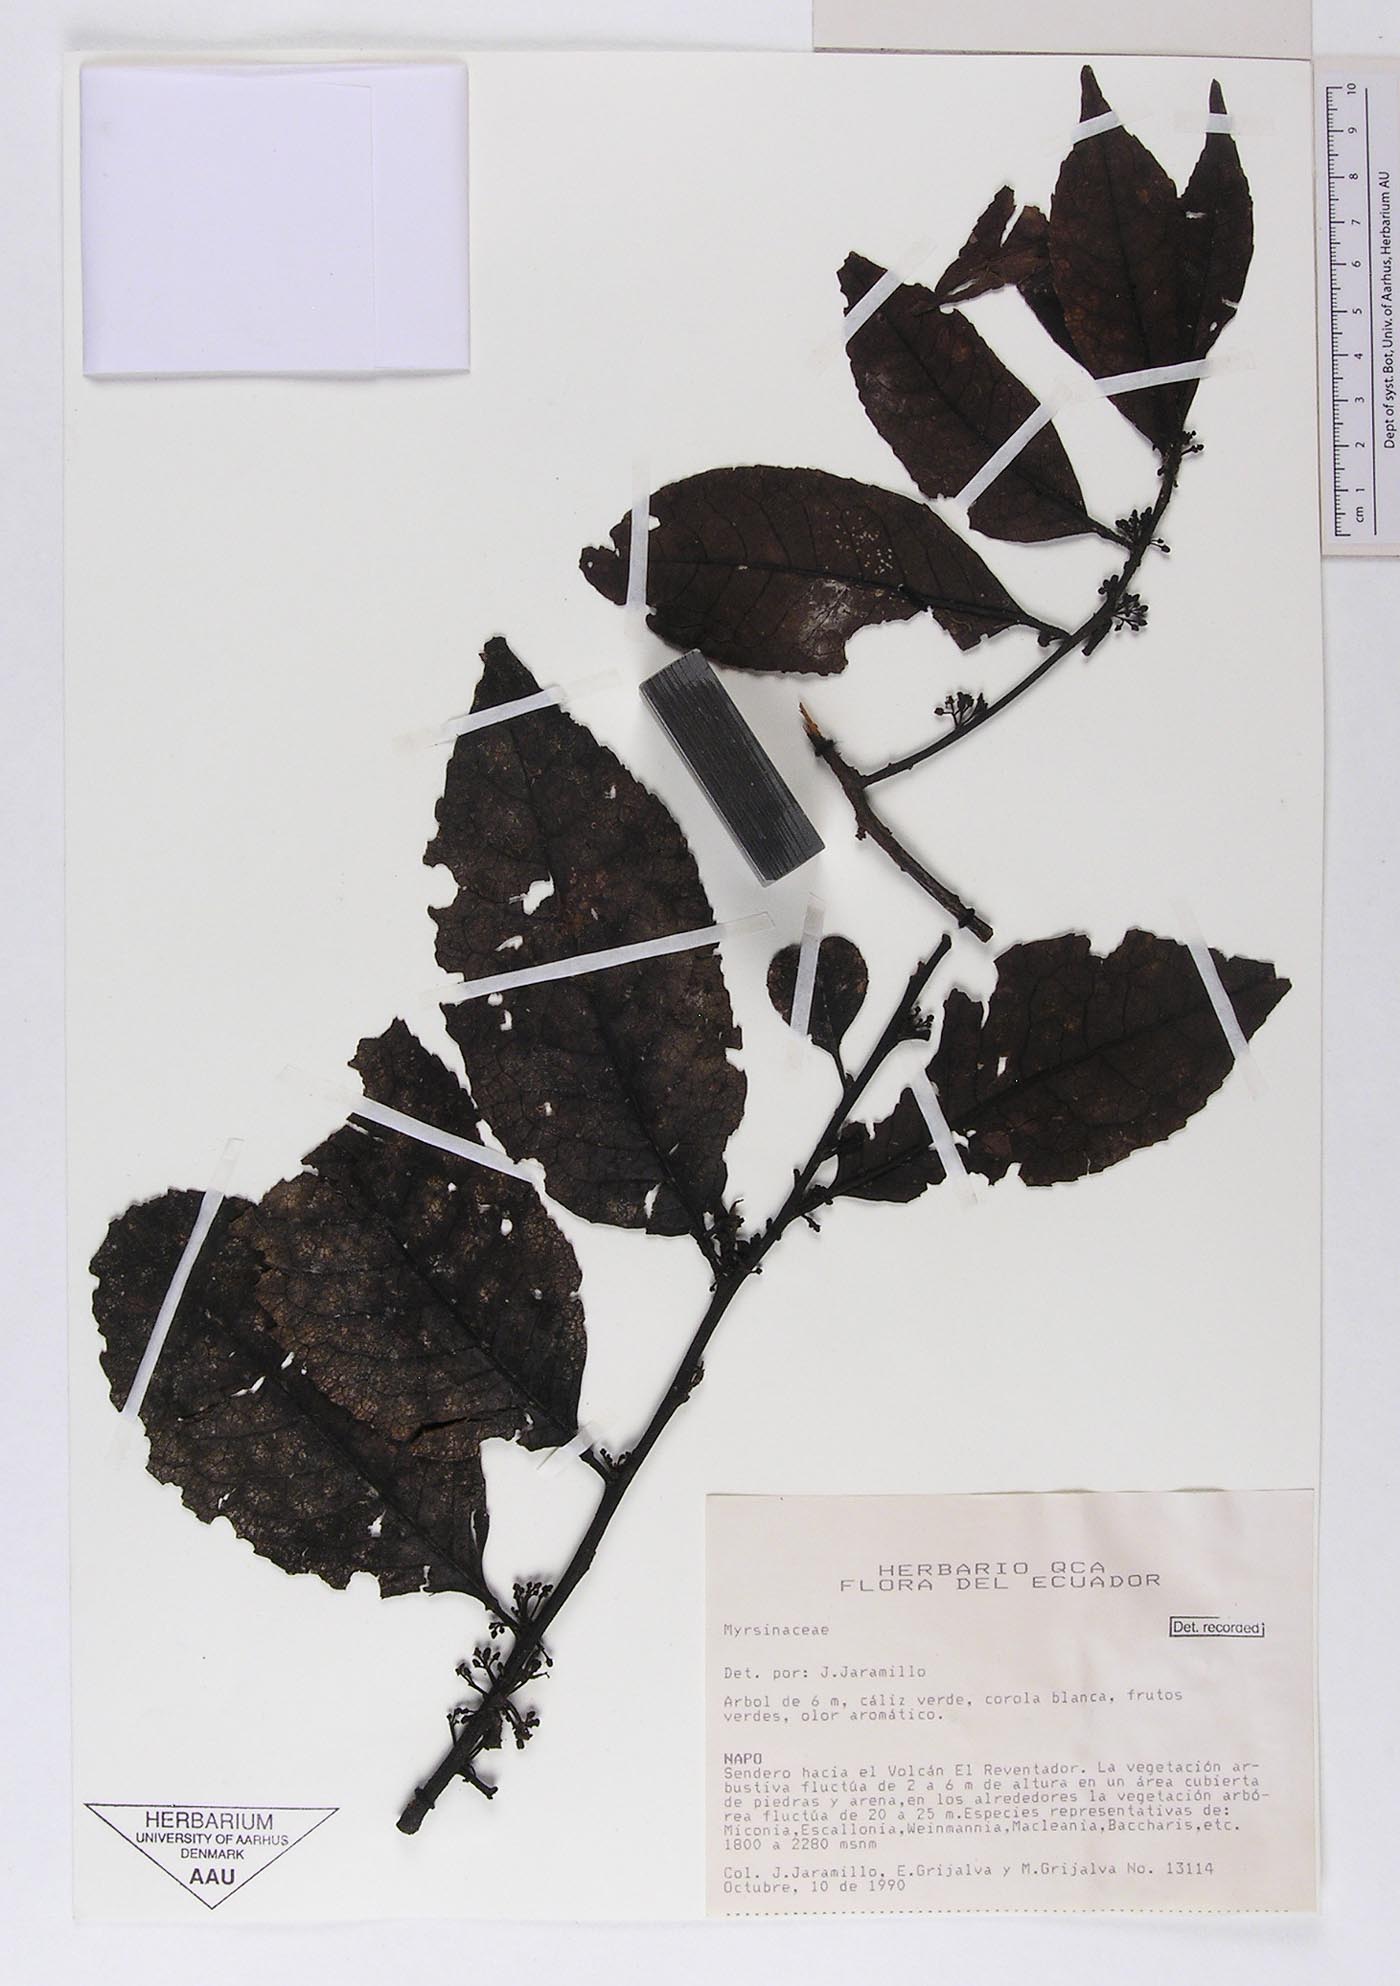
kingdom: Plantae
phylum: Tracheophyta
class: Magnoliopsida
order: Ericales
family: Primulaceae
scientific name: Primulaceae
